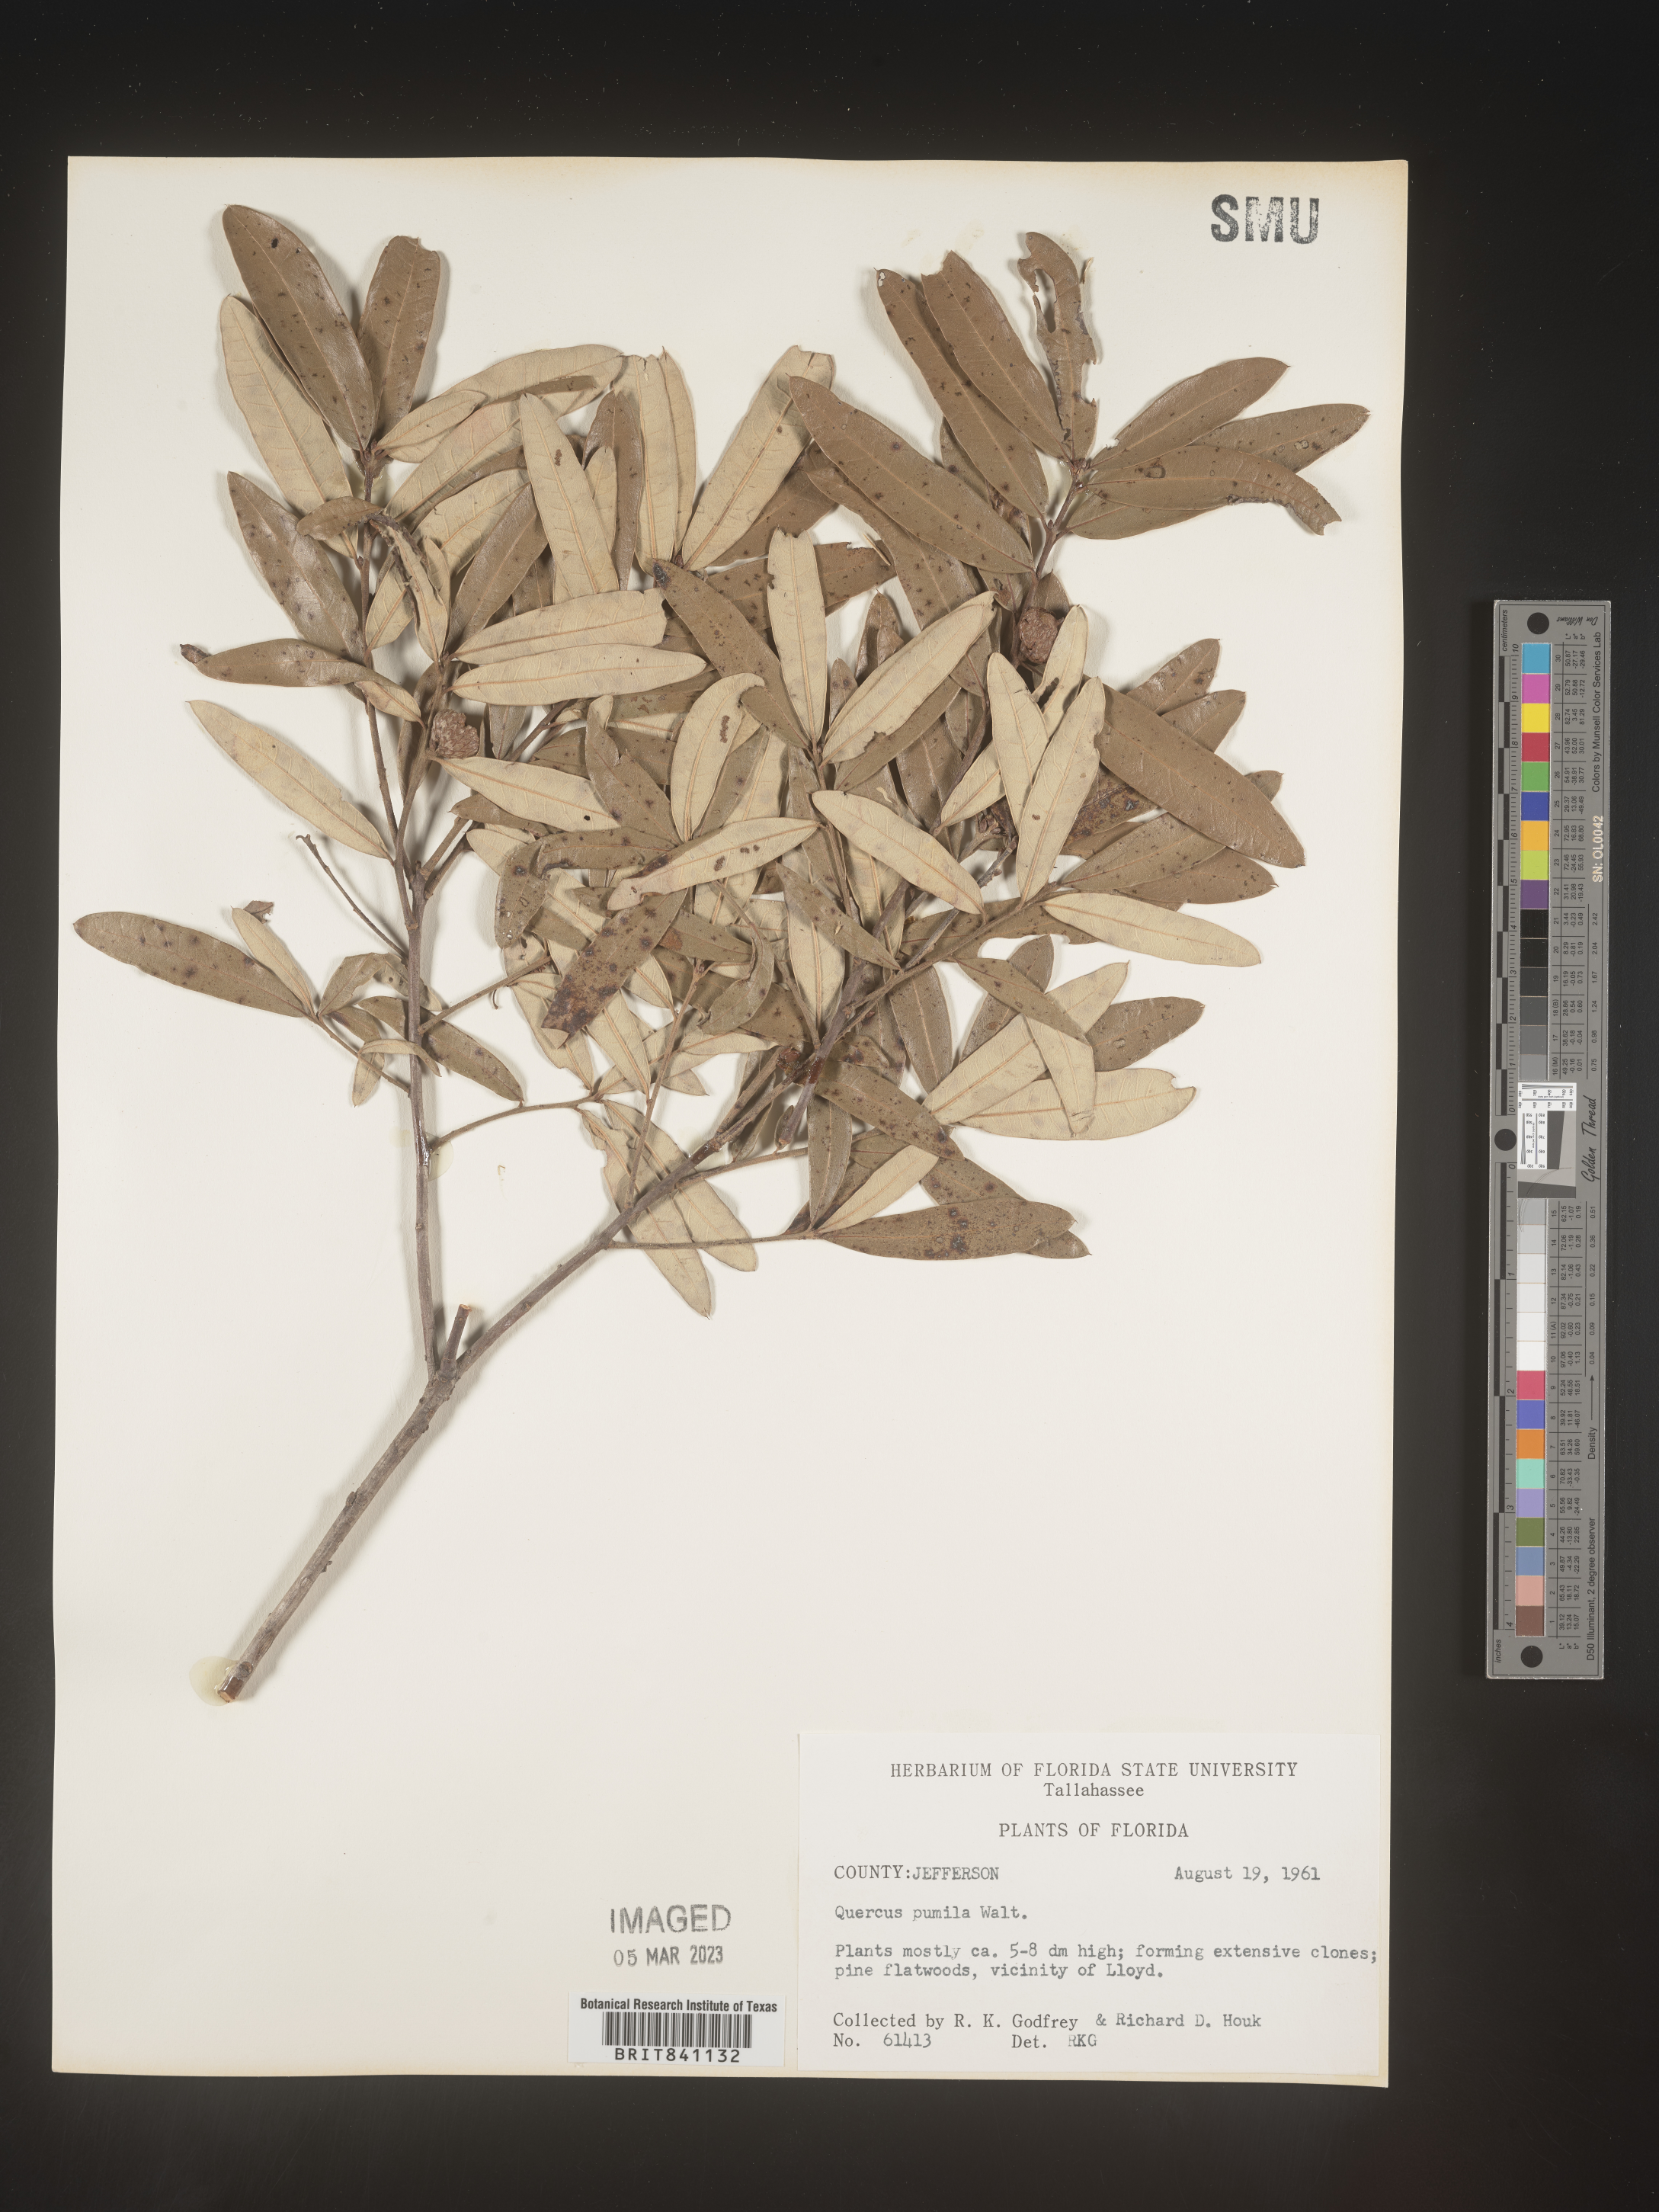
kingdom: Plantae
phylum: Tracheophyta
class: Magnoliopsida
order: Fagales
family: Fagaceae
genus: Quercus
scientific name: Quercus pumila
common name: Runner oak
